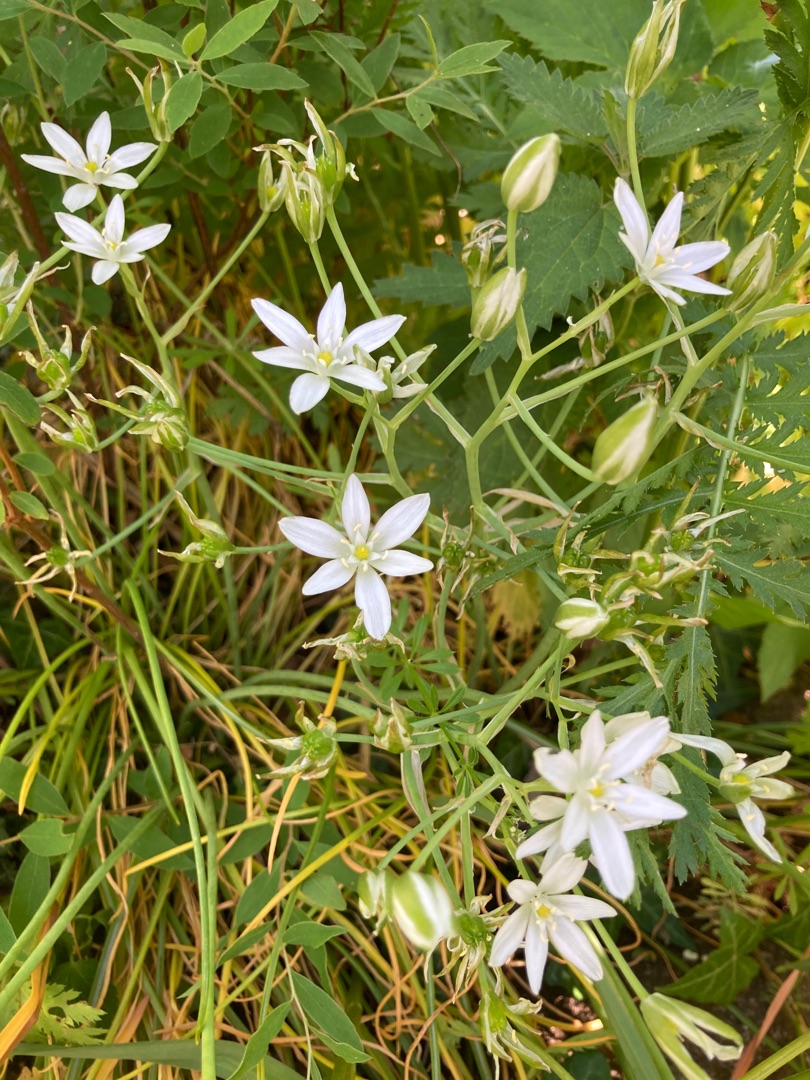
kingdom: Plantae
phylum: Tracheophyta
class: Liliopsida
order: Asparagales
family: Asparagaceae
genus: Ornithogalum
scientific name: Ornithogalum umbellatum
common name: Kost-fuglemælk
